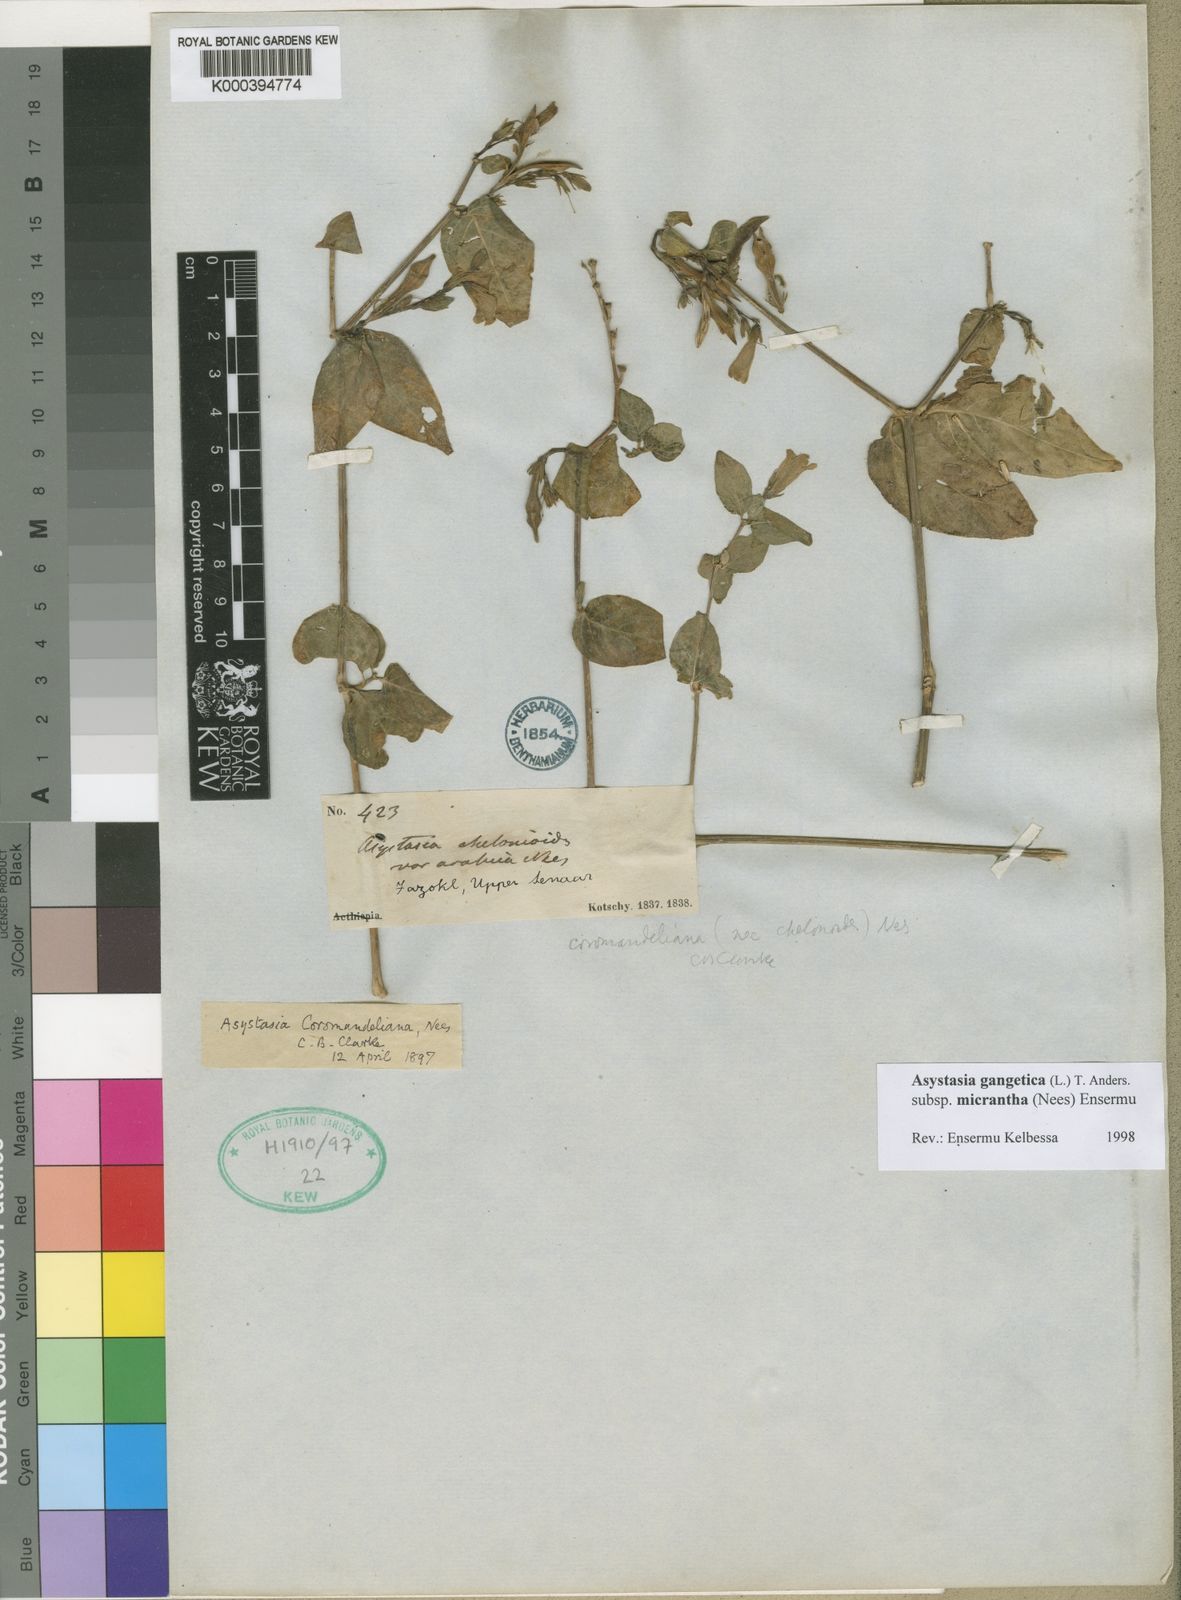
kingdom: Plantae
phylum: Tracheophyta
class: Magnoliopsida
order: Lamiales
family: Acanthaceae
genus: Asystasia
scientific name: Asystasia gangetica
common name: Chinese violet
